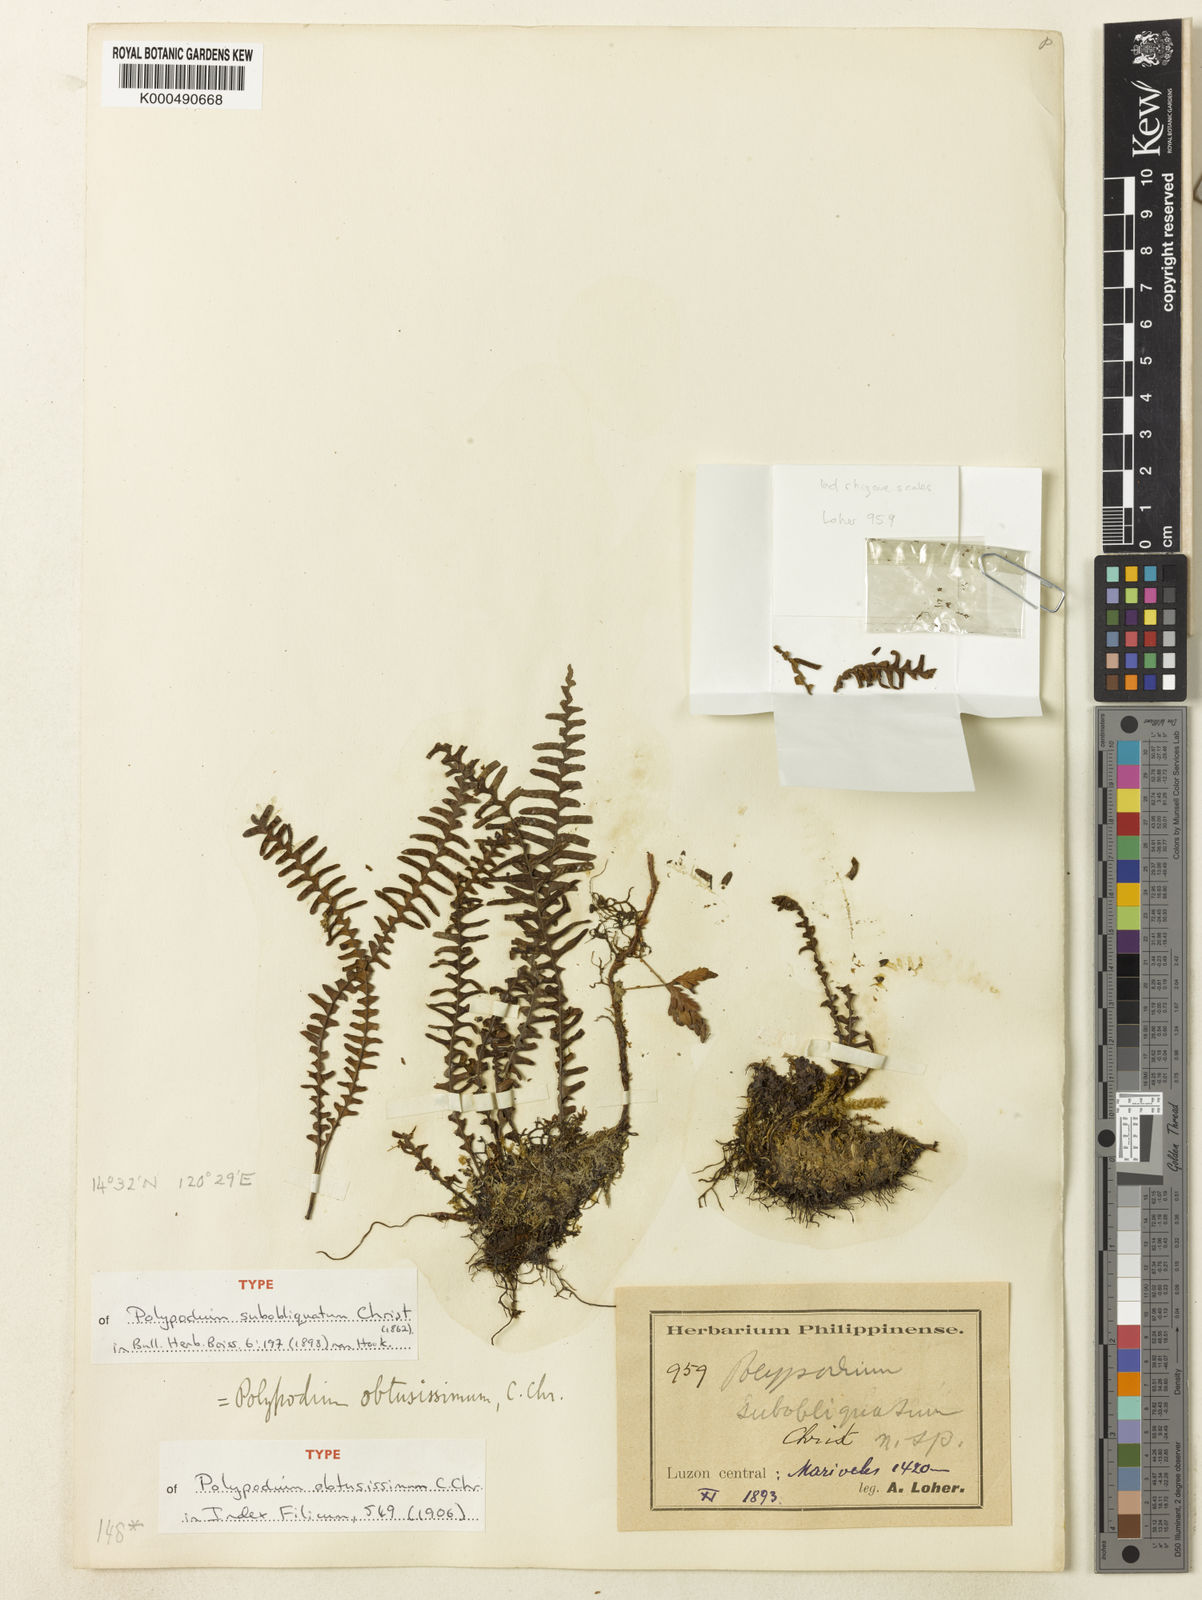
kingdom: Plantae
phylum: Tracheophyta
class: Polypodiopsida
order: Polypodiales
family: Polypodiaceae
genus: Prosaptia
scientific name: Prosaptia nutans
